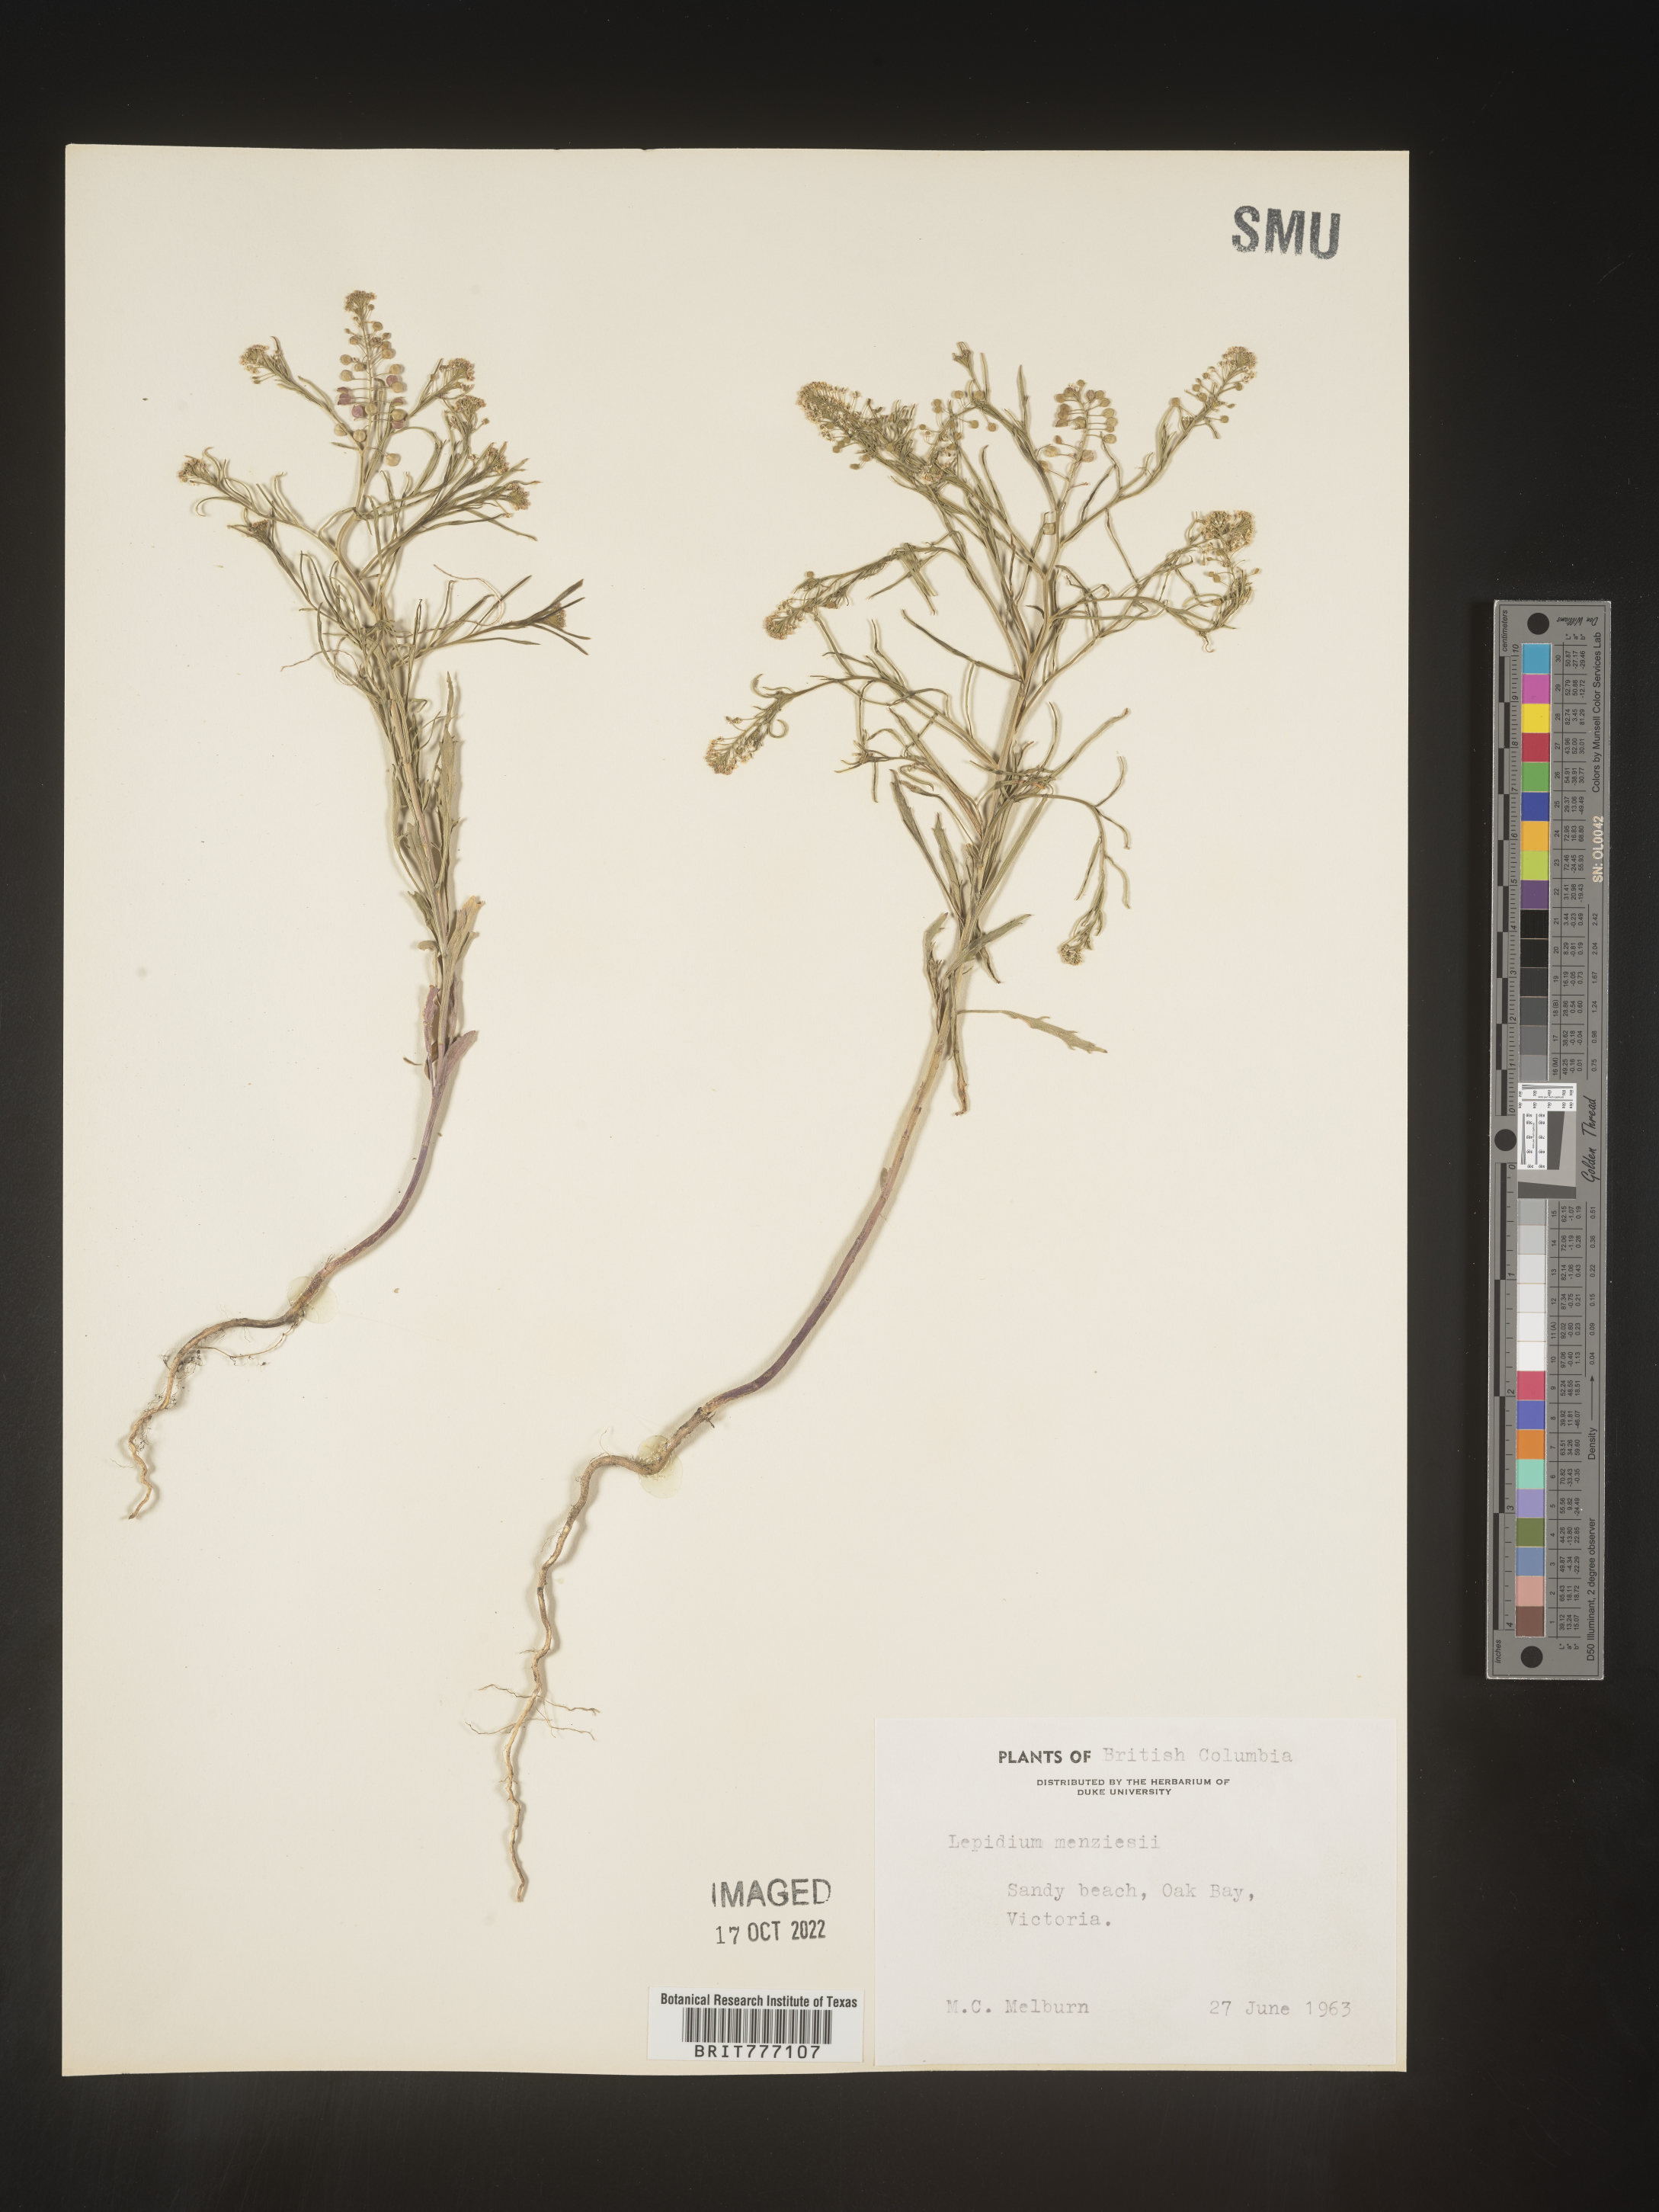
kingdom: Plantae
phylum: Tracheophyta
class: Magnoliopsida
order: Brassicales
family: Brassicaceae
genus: Lepidium
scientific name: Lepidium
